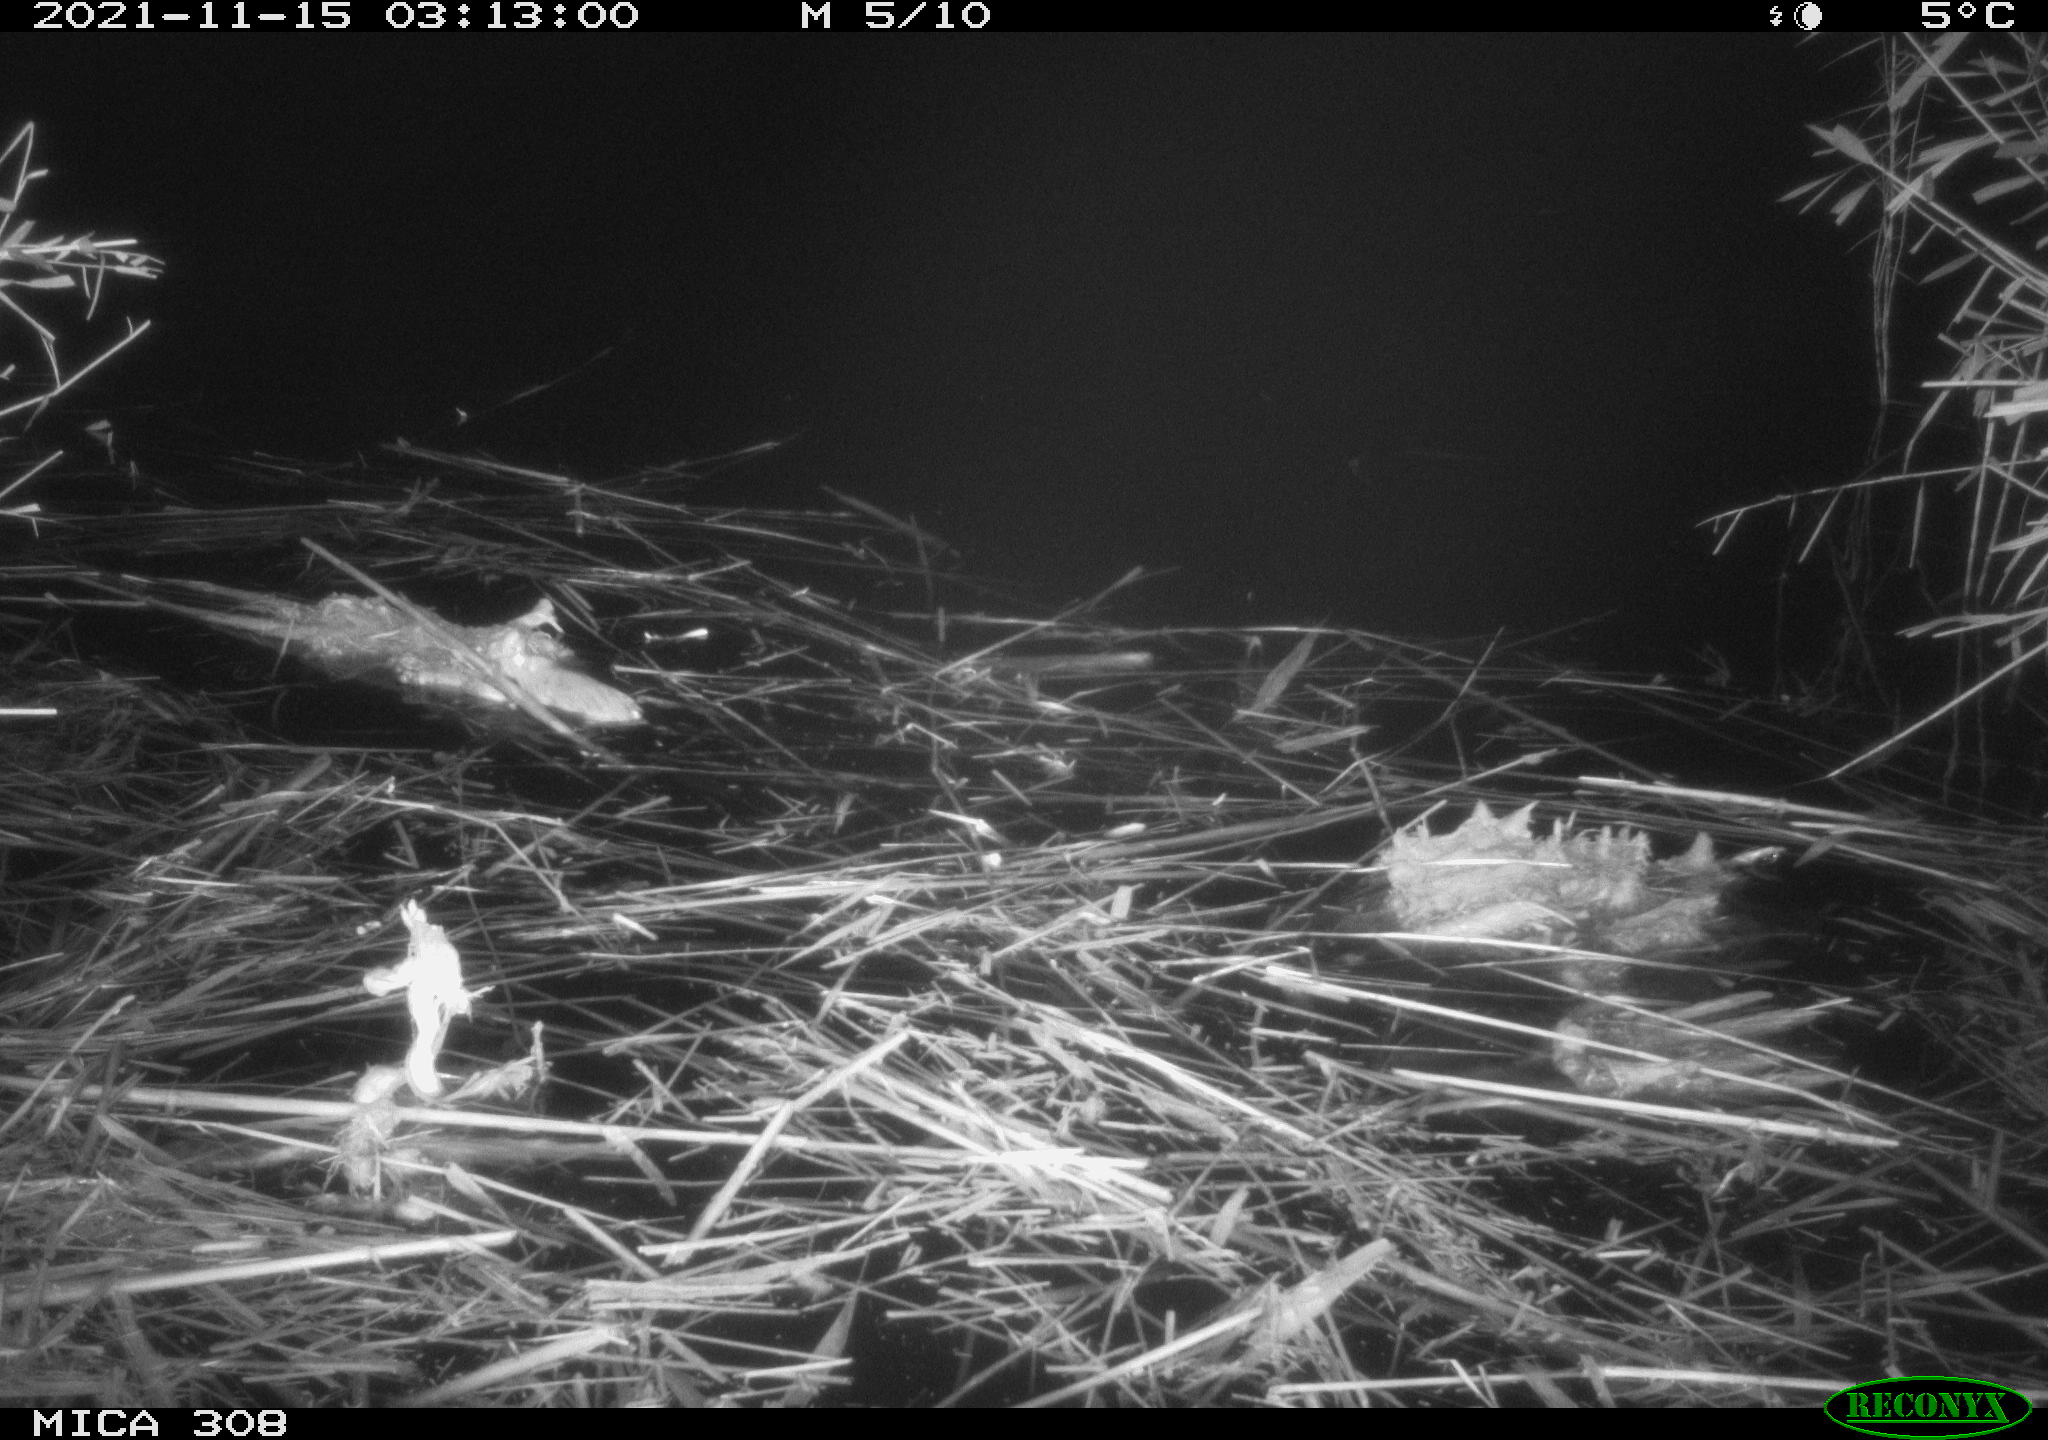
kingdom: Animalia
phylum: Chordata
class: Mammalia
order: Rodentia
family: Muridae
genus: Rattus
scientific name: Rattus norvegicus
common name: Brown rat
